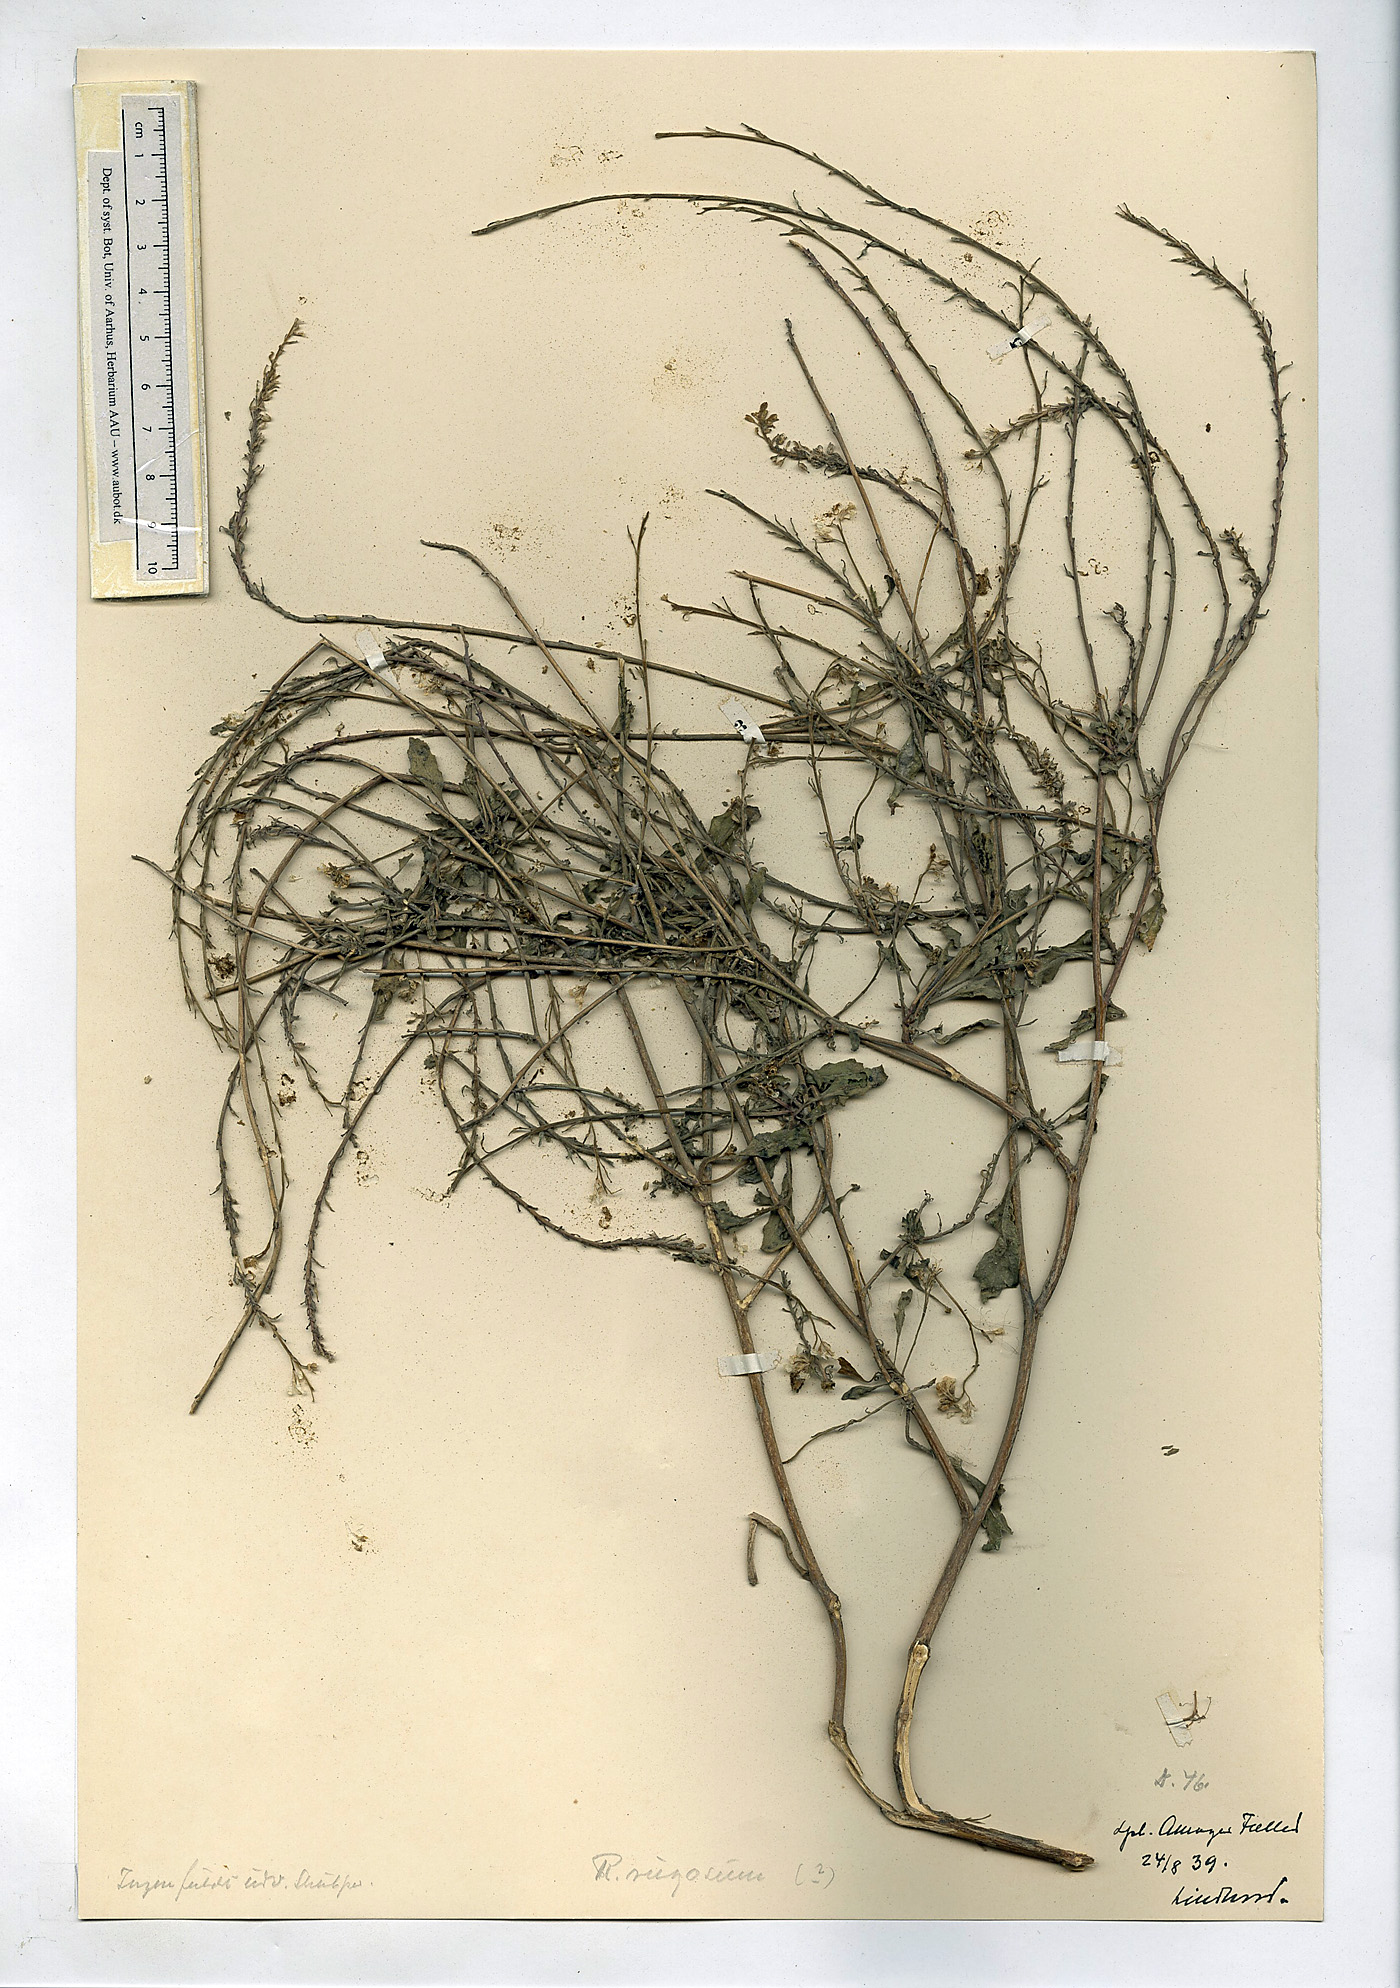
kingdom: Plantae
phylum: Tracheophyta
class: Magnoliopsida
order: Brassicales
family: Brassicaceae
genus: Rapistrum
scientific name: Rapistrum rugosum
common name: Annual bastardcabbage
